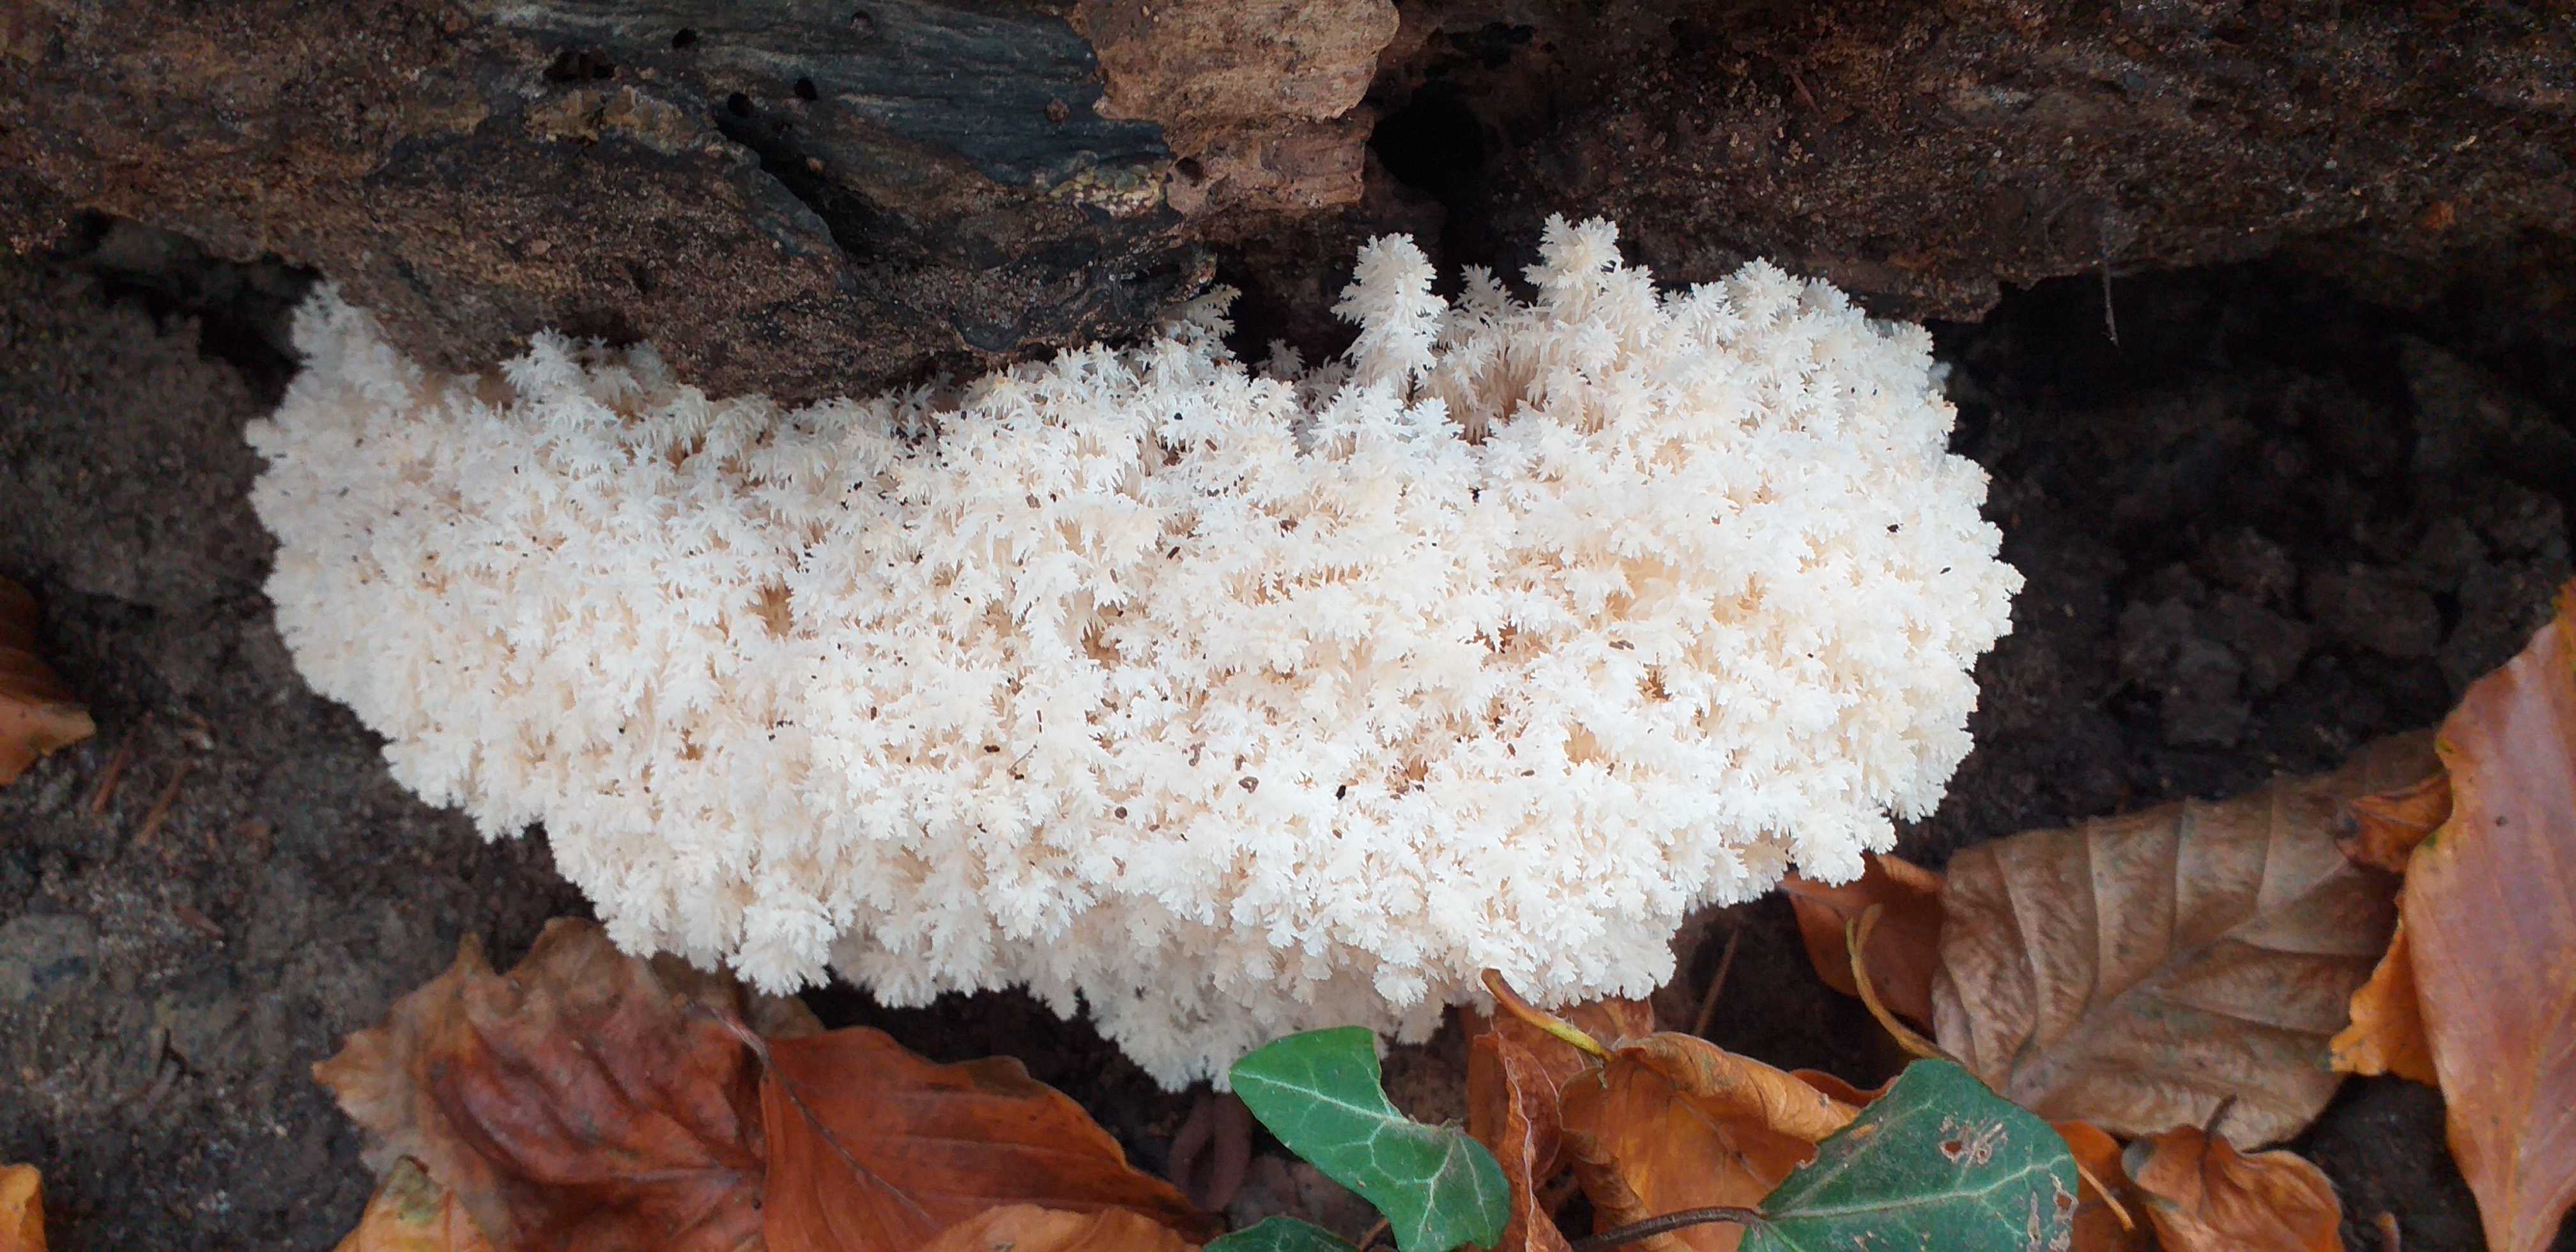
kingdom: Fungi
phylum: Basidiomycota
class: Agaricomycetes
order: Russulales
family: Hericiaceae
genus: Hericium
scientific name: Hericium coralloides
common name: koralpigsvamp
